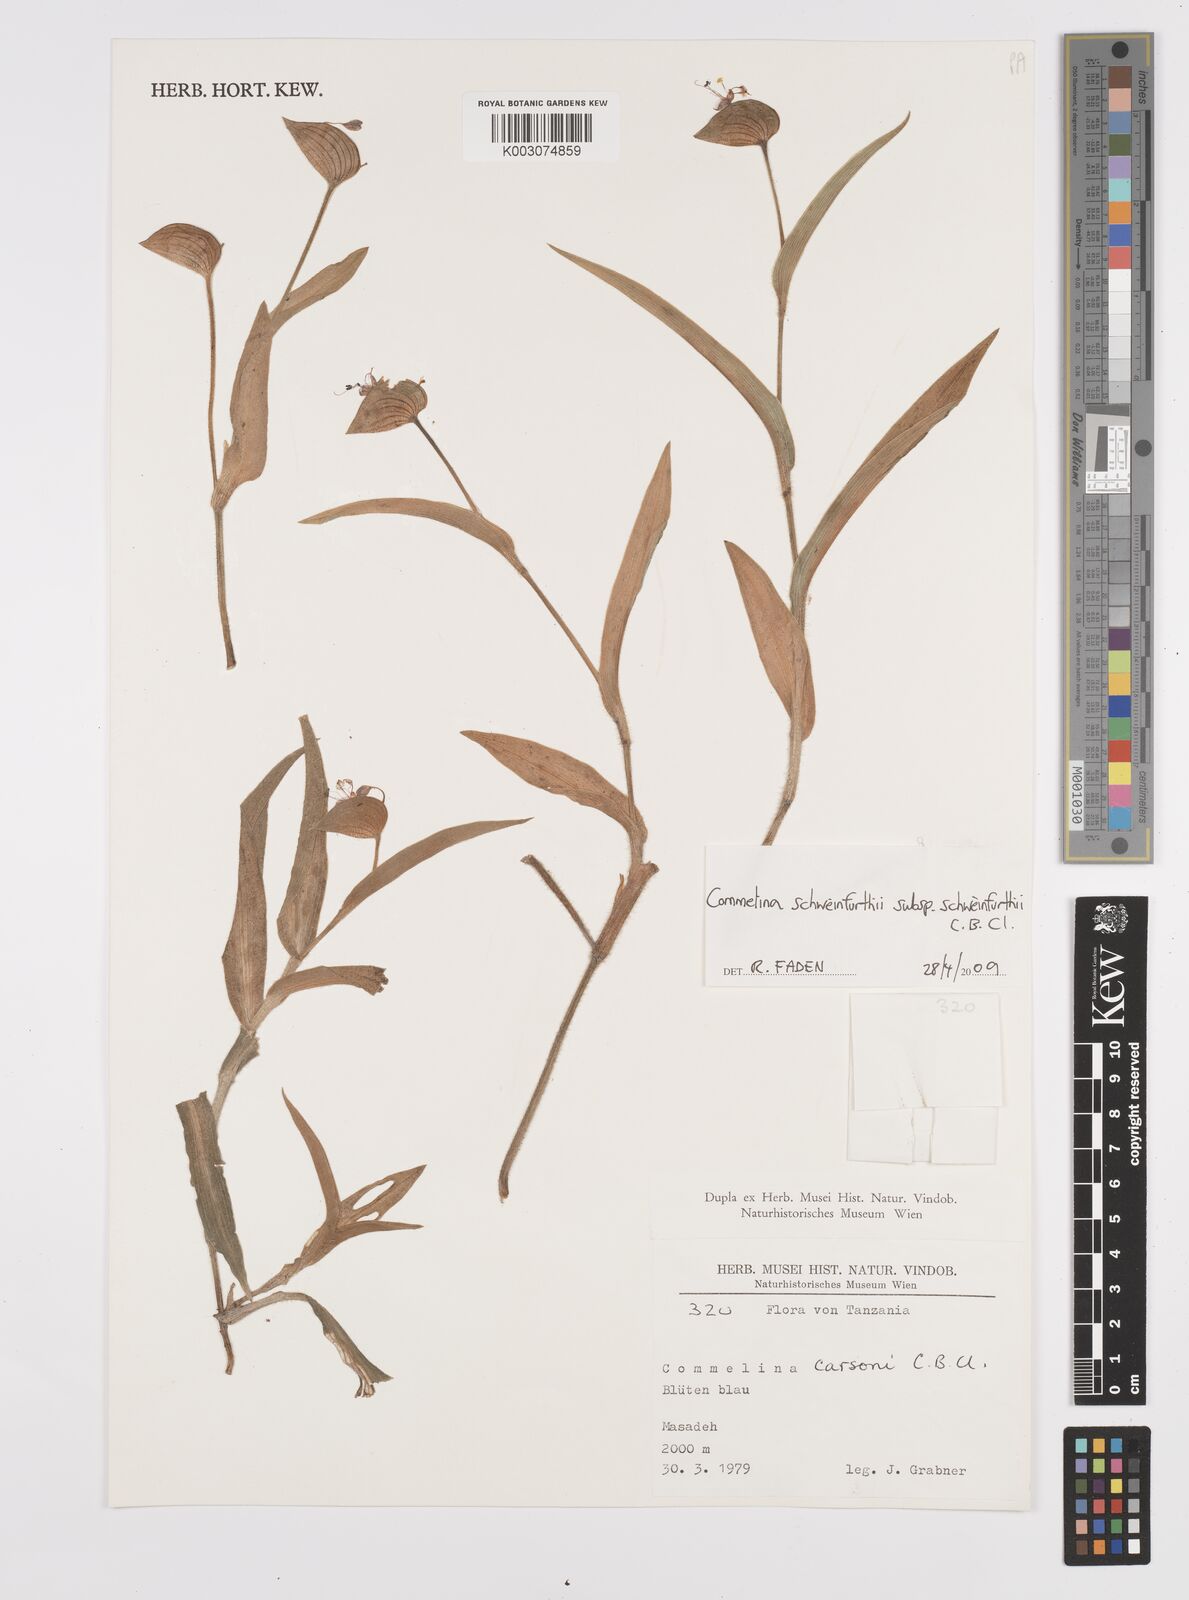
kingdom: Plantae
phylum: Tracheophyta
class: Liliopsida
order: Commelinales
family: Commelinaceae
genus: Commelina
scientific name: Commelina schweinfurthii
